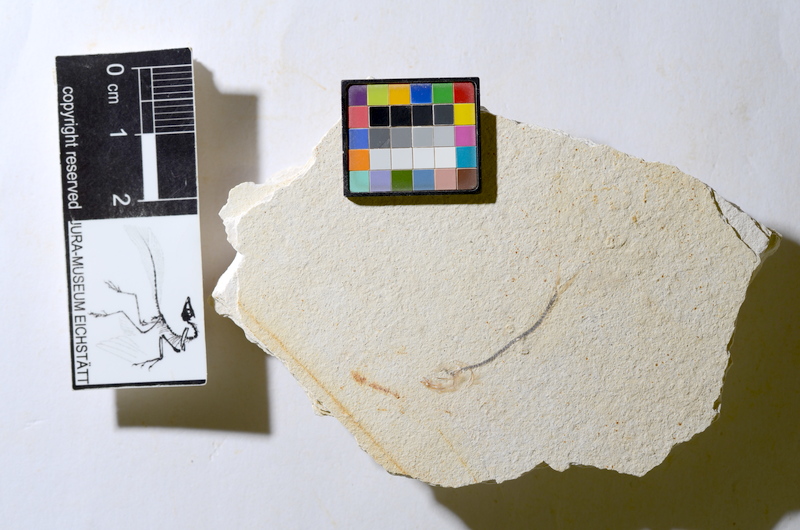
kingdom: Animalia
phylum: Chordata
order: Salmoniformes
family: Orthogonikleithridae
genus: Orthogonikleithrus
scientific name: Orthogonikleithrus hoelli
